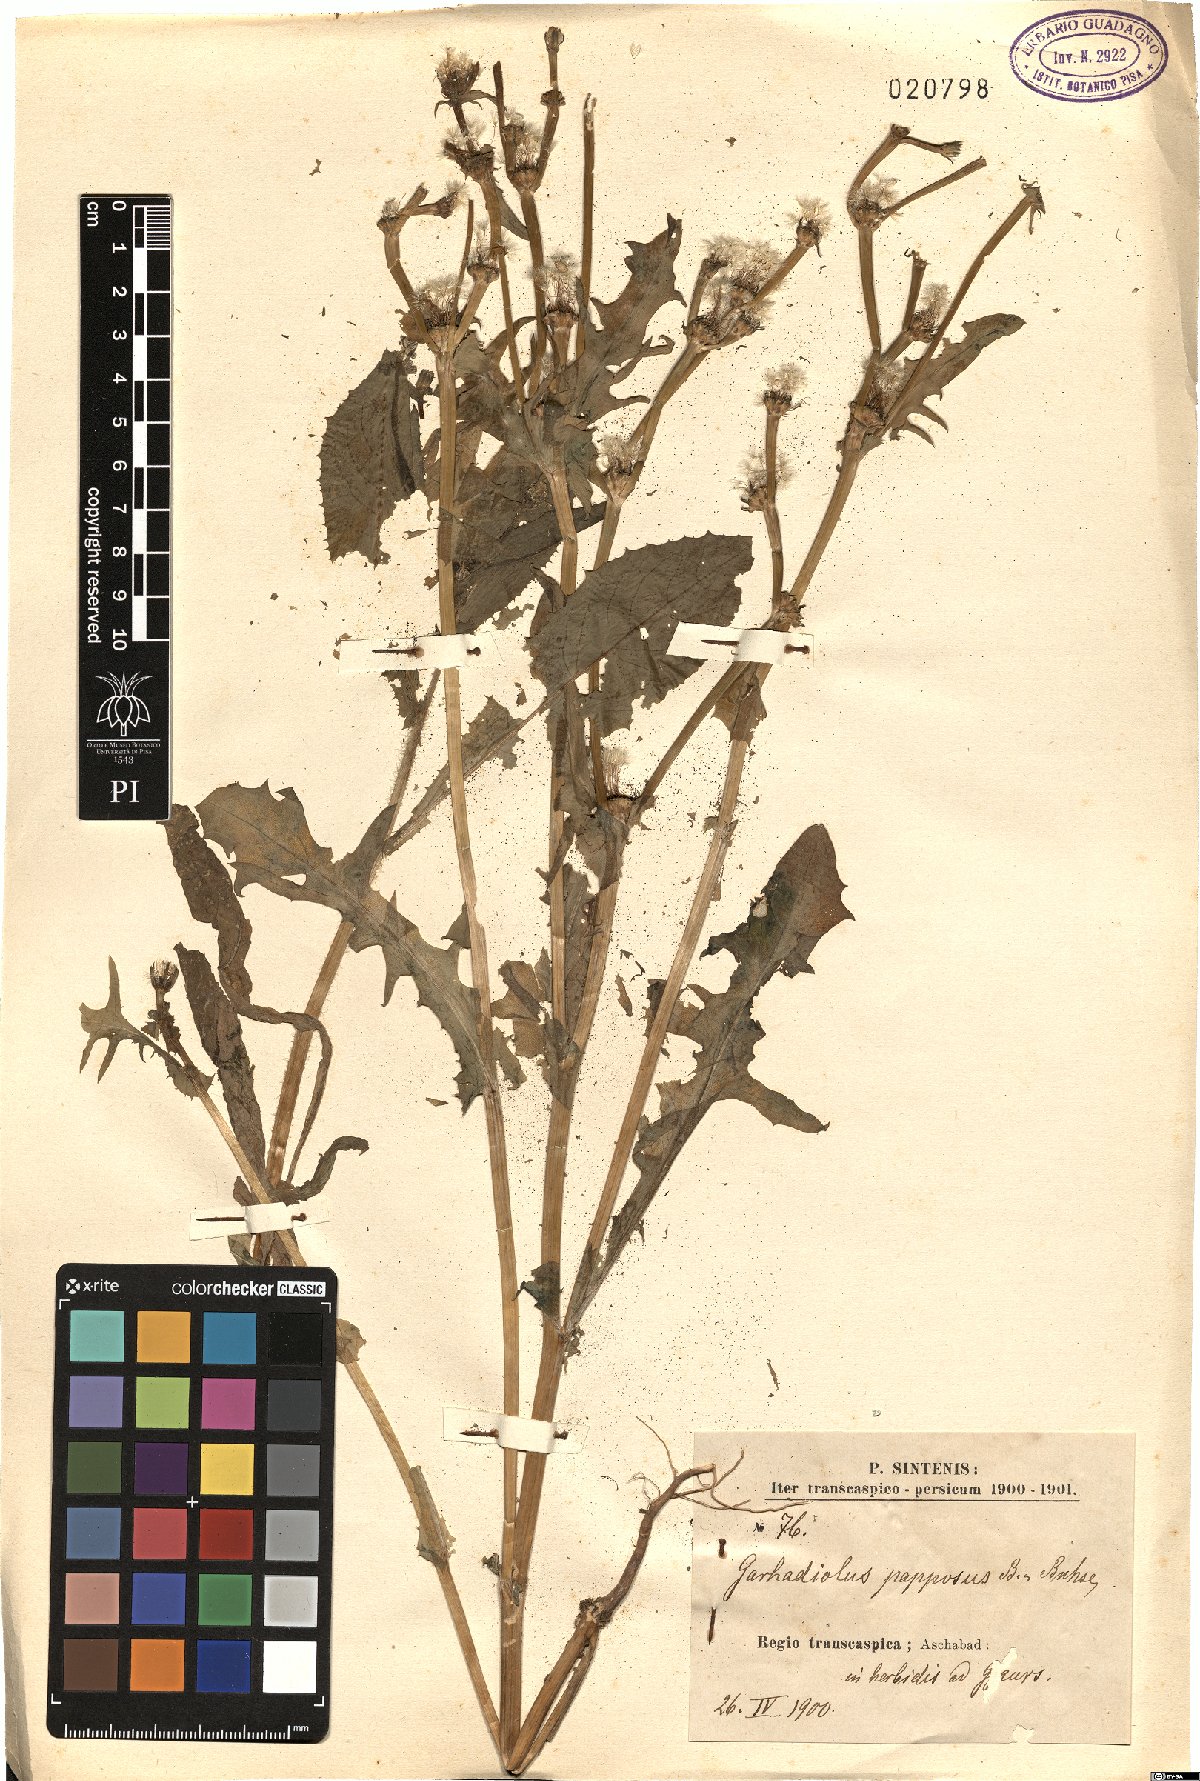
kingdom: Plantae
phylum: Tracheophyta
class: Magnoliopsida
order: Asterales
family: Asteraceae
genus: Garhadiolus
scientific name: Garhadiolus papposus
